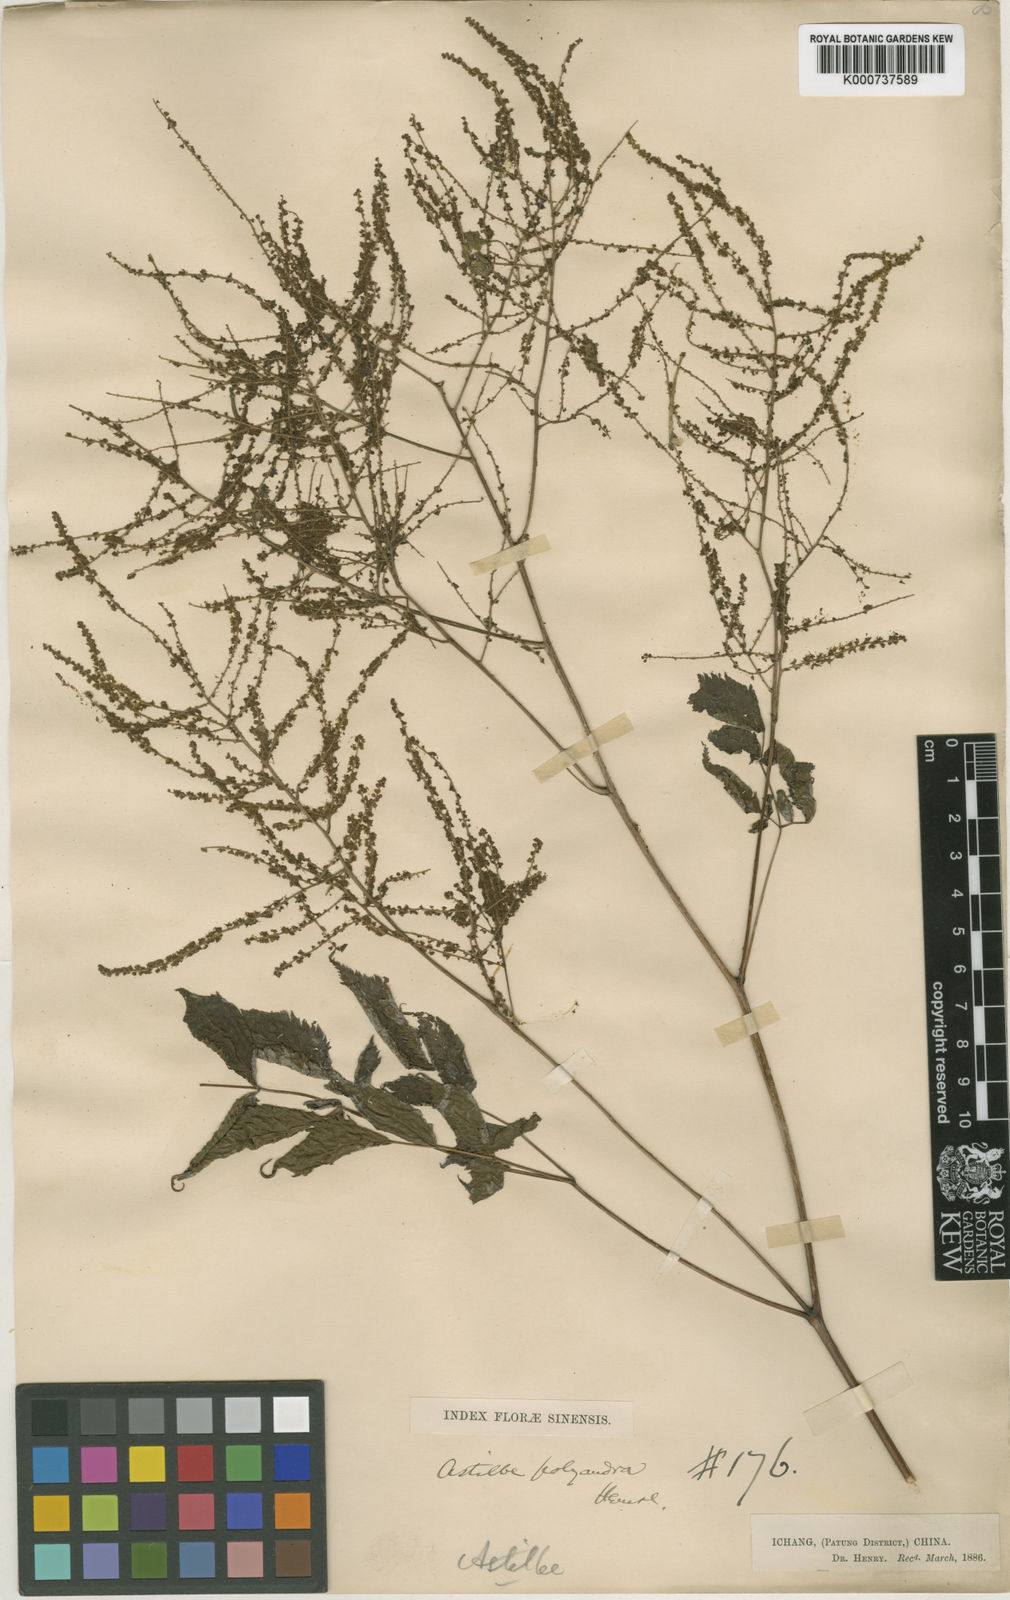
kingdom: Plantae
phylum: Tracheophyta
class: Magnoliopsida
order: Rosales
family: Rosaceae
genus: Aruncus
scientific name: Aruncus sylvester
